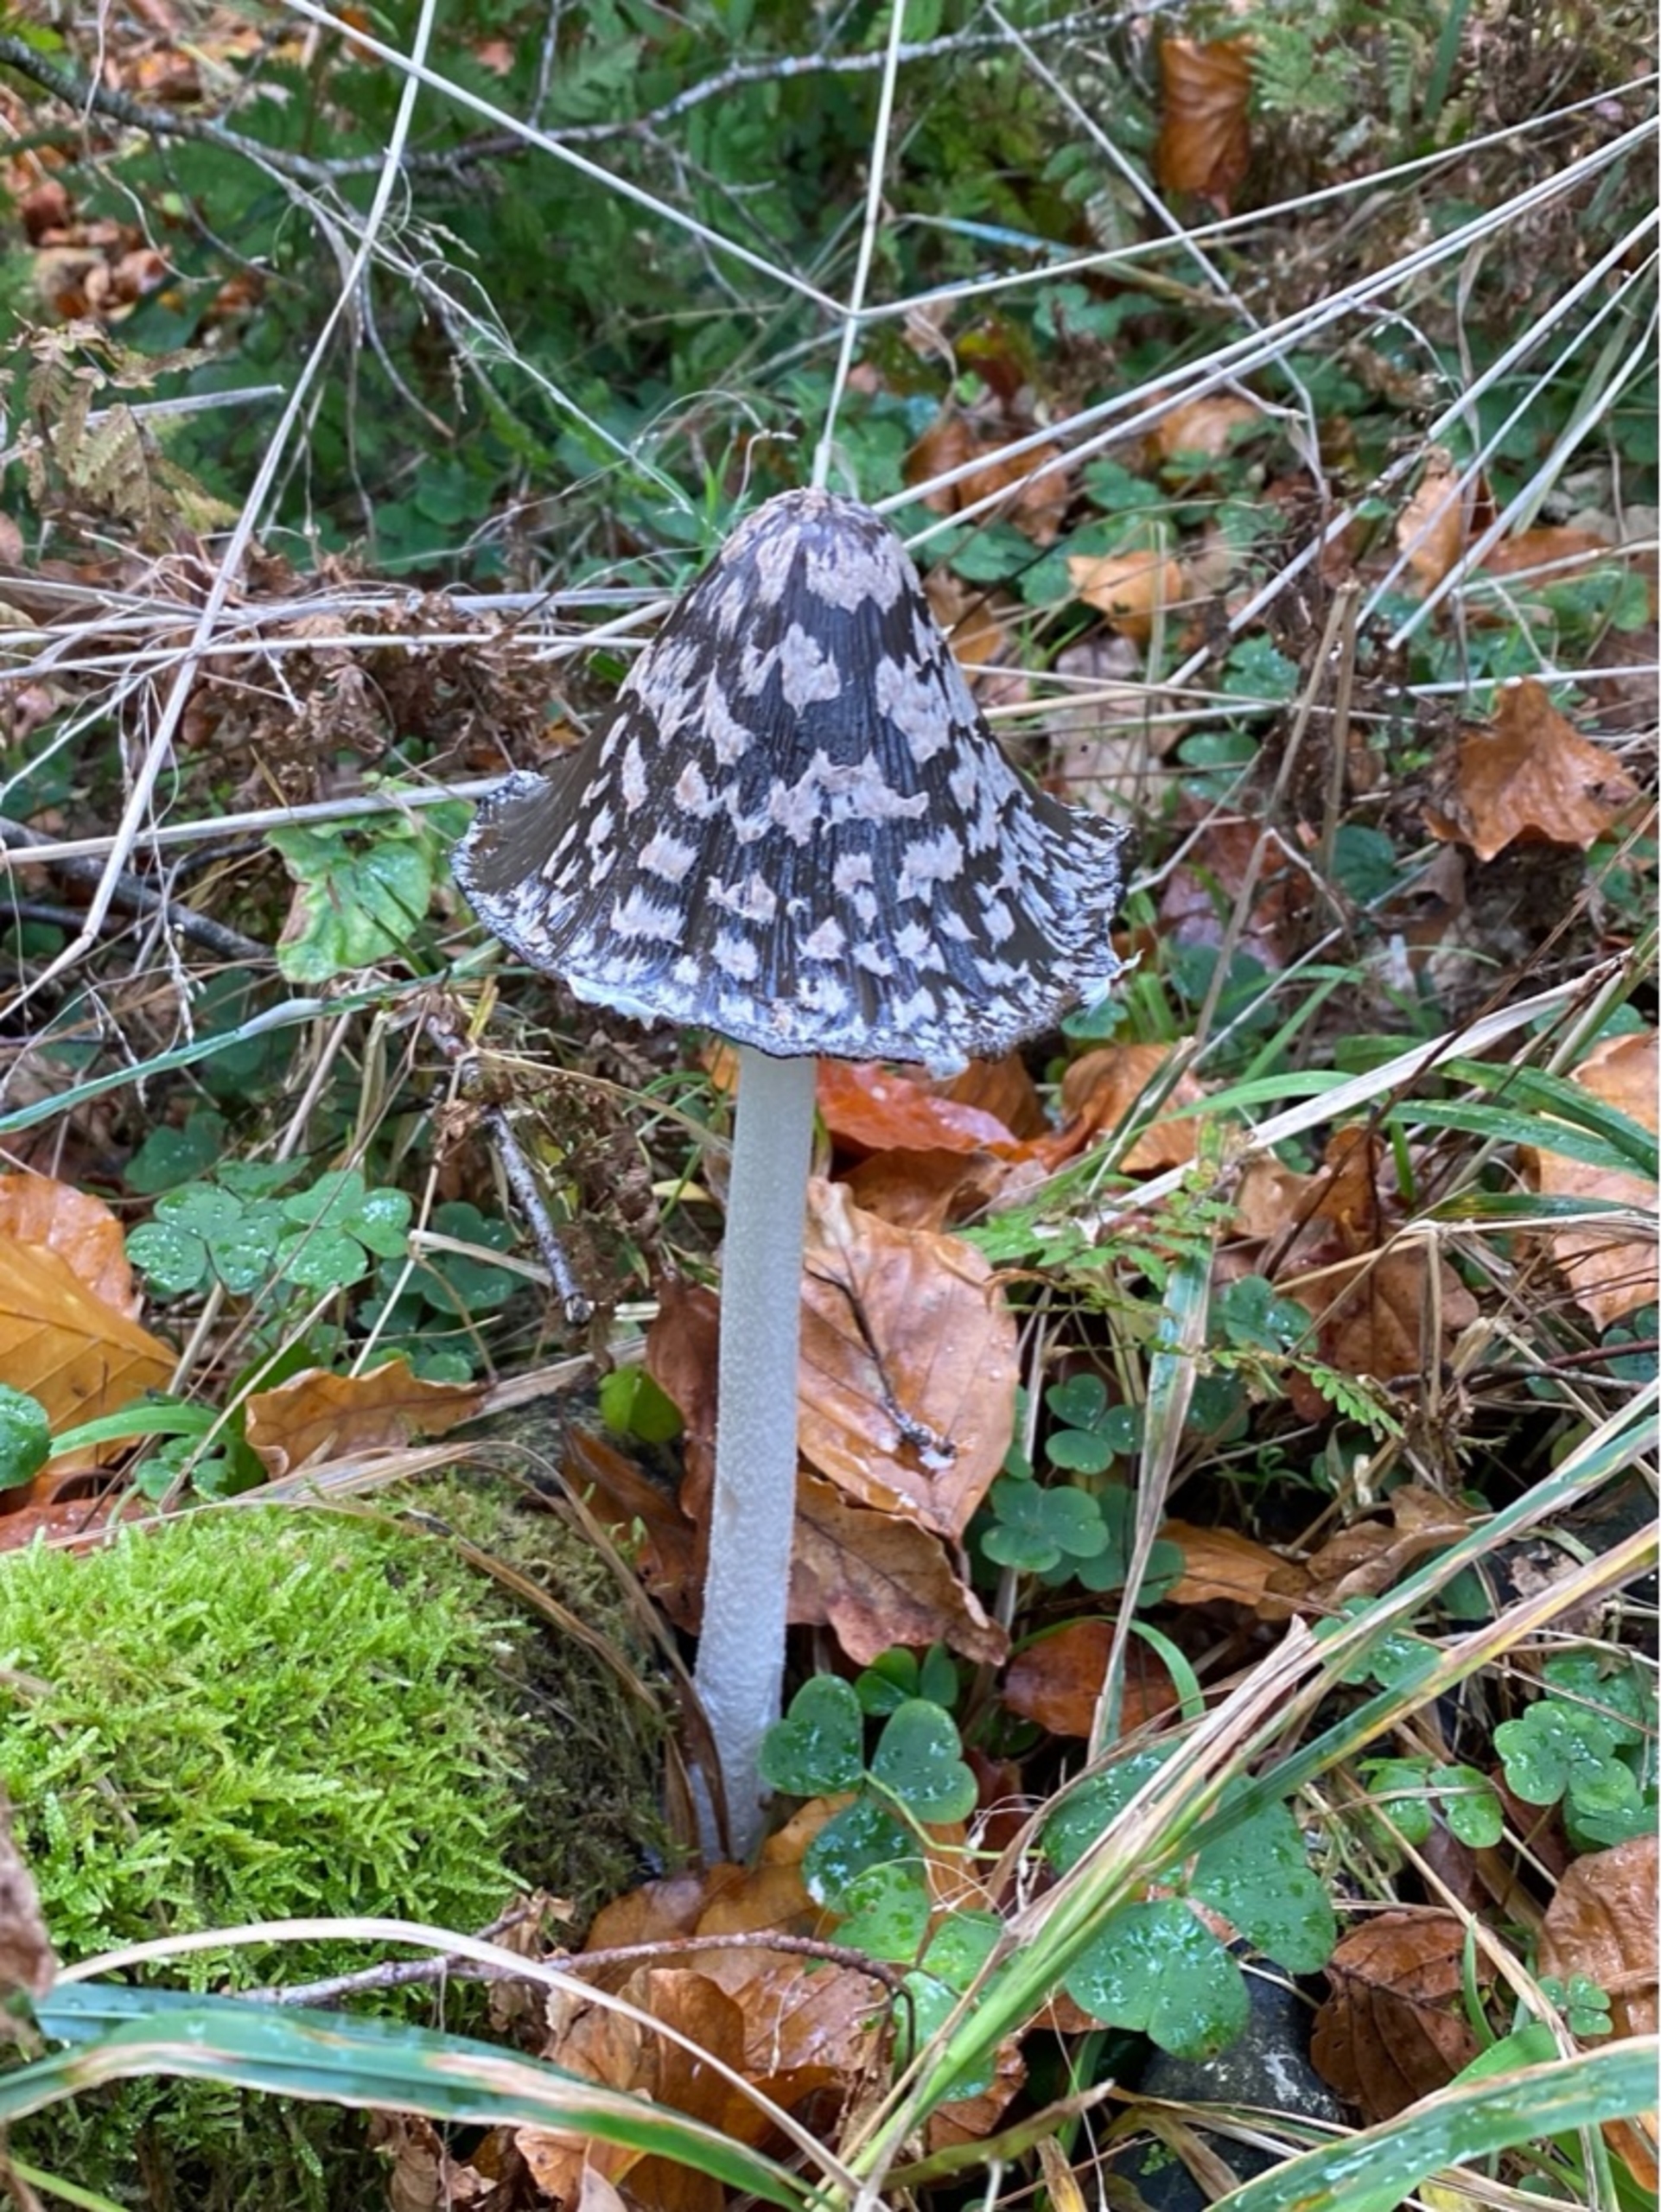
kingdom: Fungi
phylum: Basidiomycota
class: Agaricomycetes
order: Agaricales
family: Psathyrellaceae
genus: Coprinopsis
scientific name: Coprinopsis picacea
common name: Skade-blækhat
